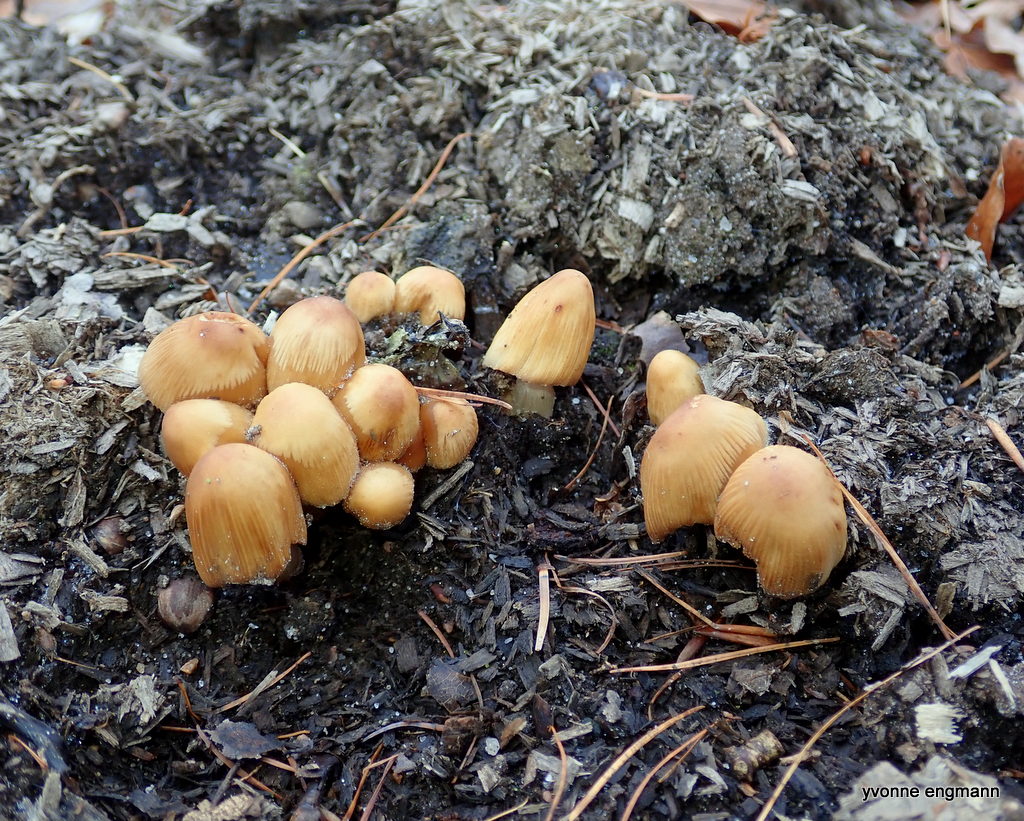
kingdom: Fungi
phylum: Basidiomycota
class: Agaricomycetes
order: Agaricales
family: Psathyrellaceae
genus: Coprinellus
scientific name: Coprinellus micaceus
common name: glimmer-blækhat
